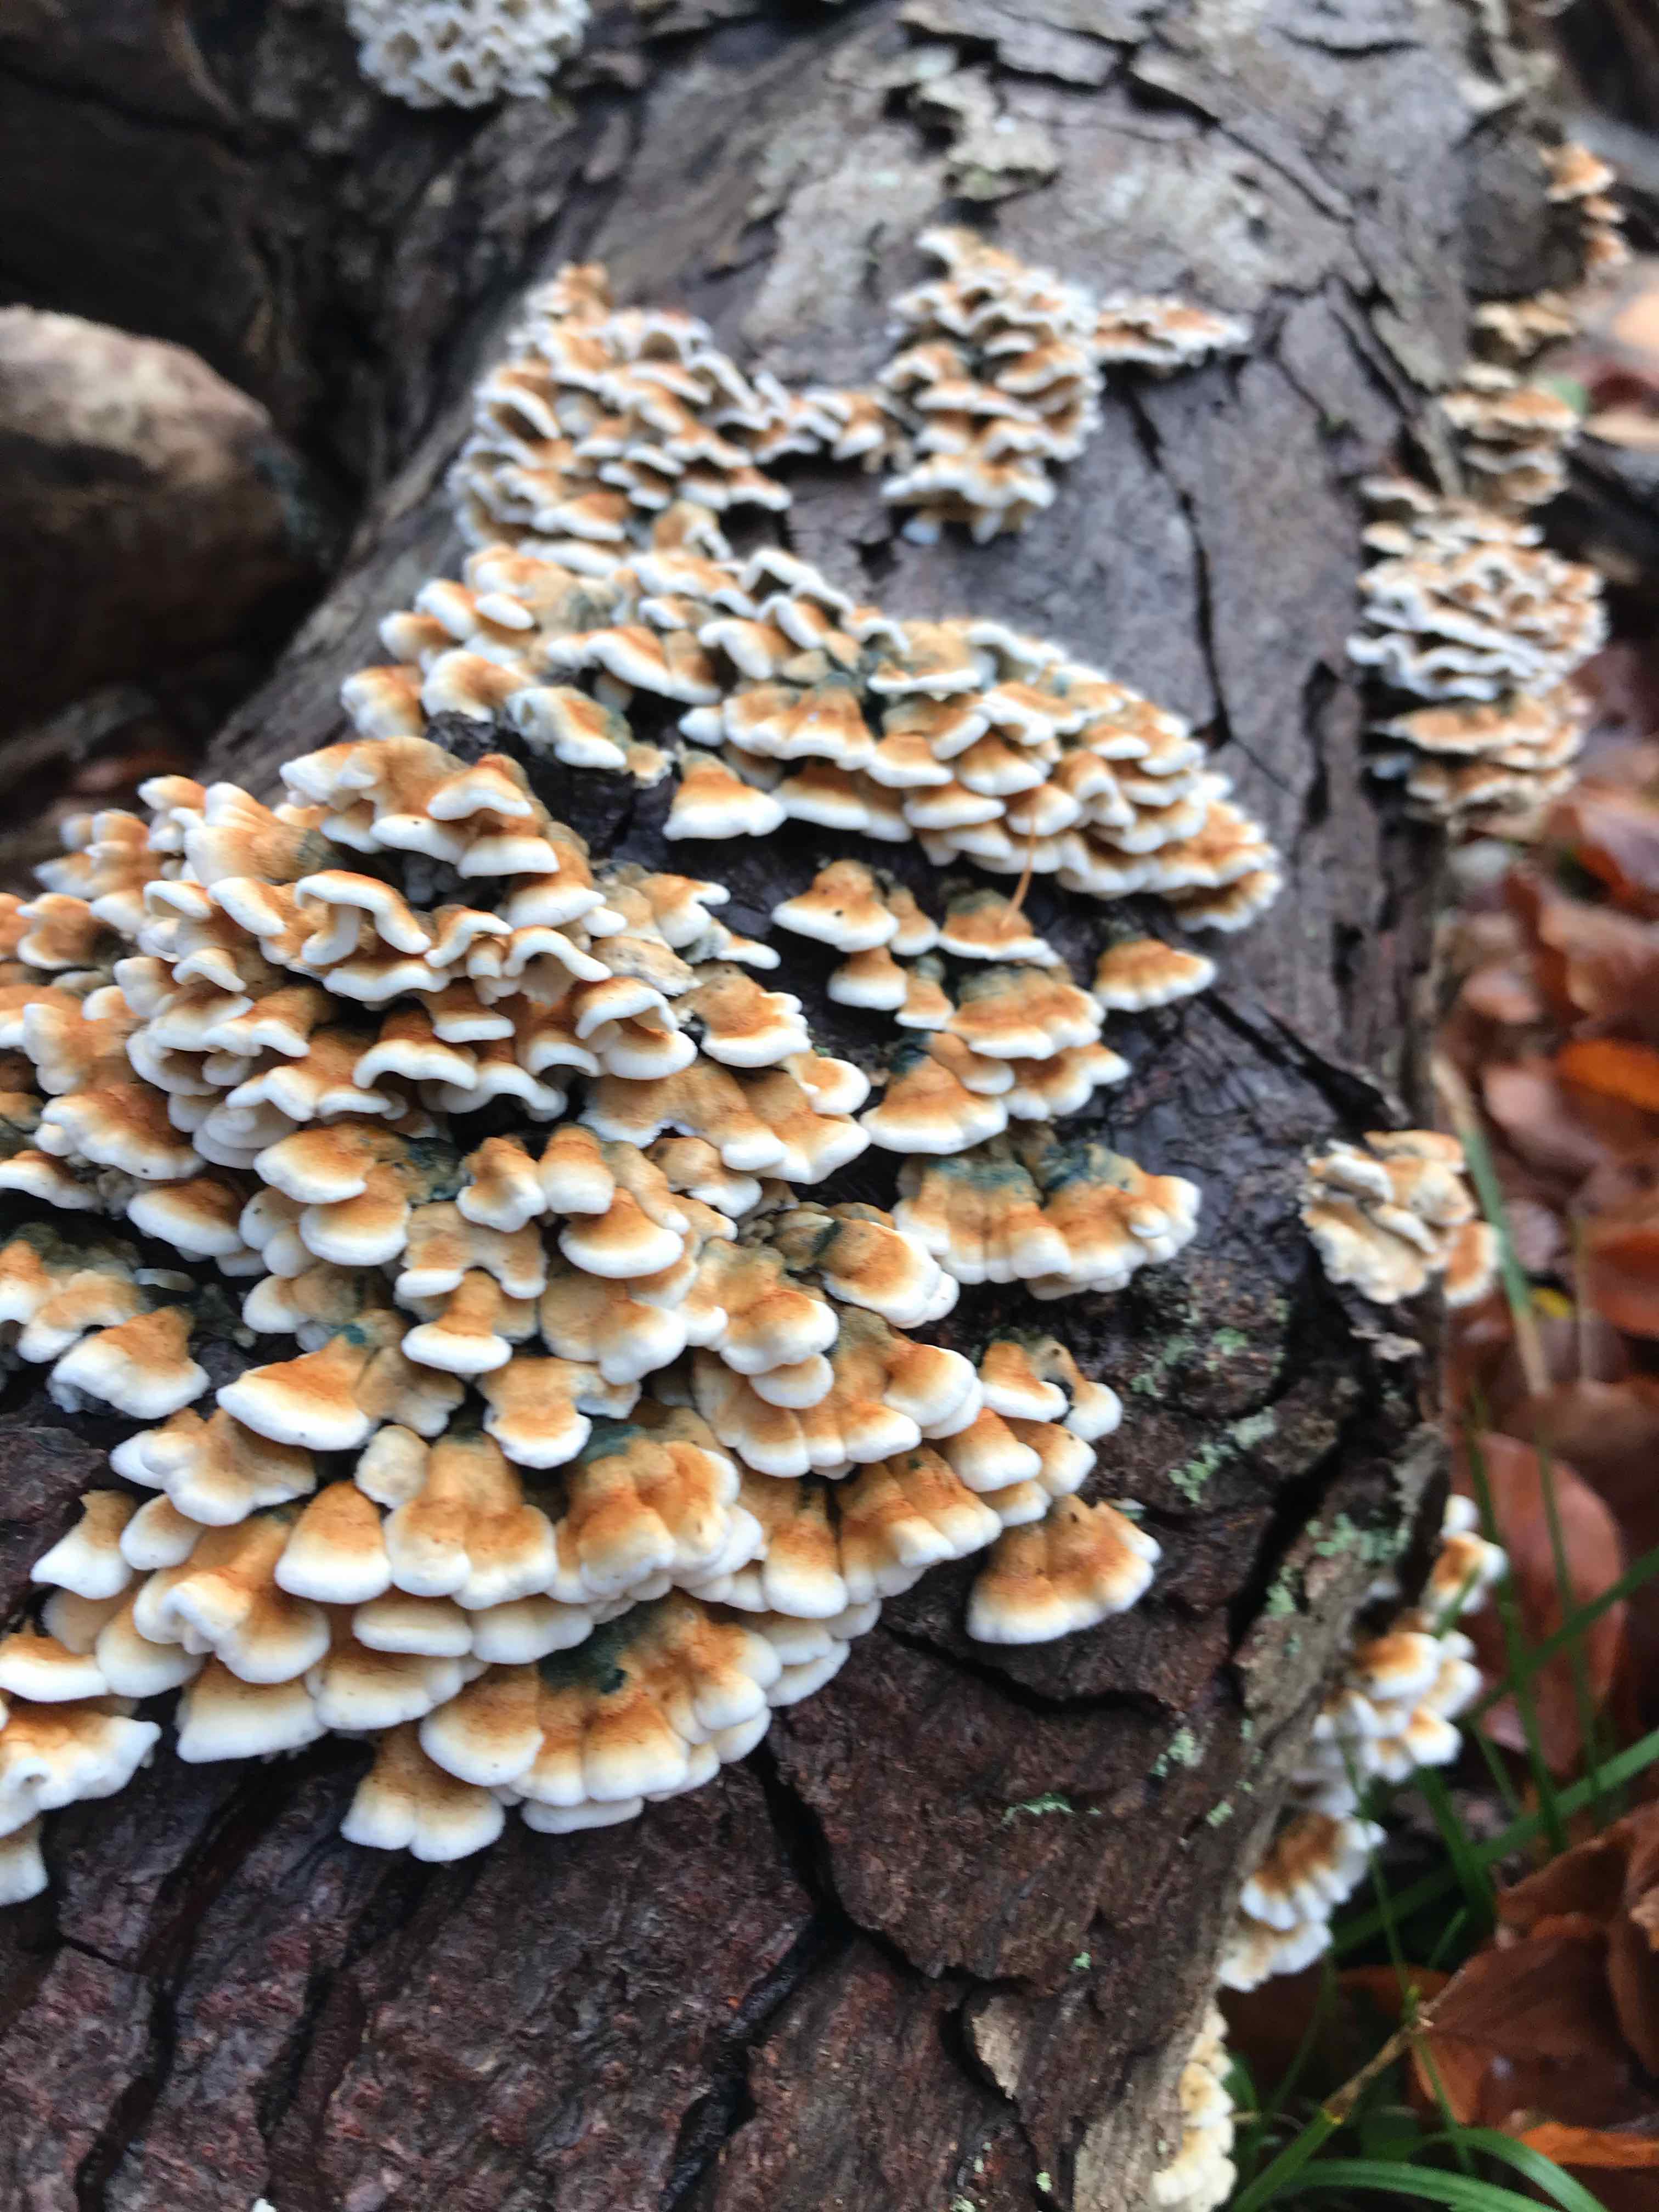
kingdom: Fungi
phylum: Basidiomycota
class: Agaricomycetes
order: Amylocorticiales
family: Amylocorticiaceae
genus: Plicaturopsis
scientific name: Plicaturopsis crispa
